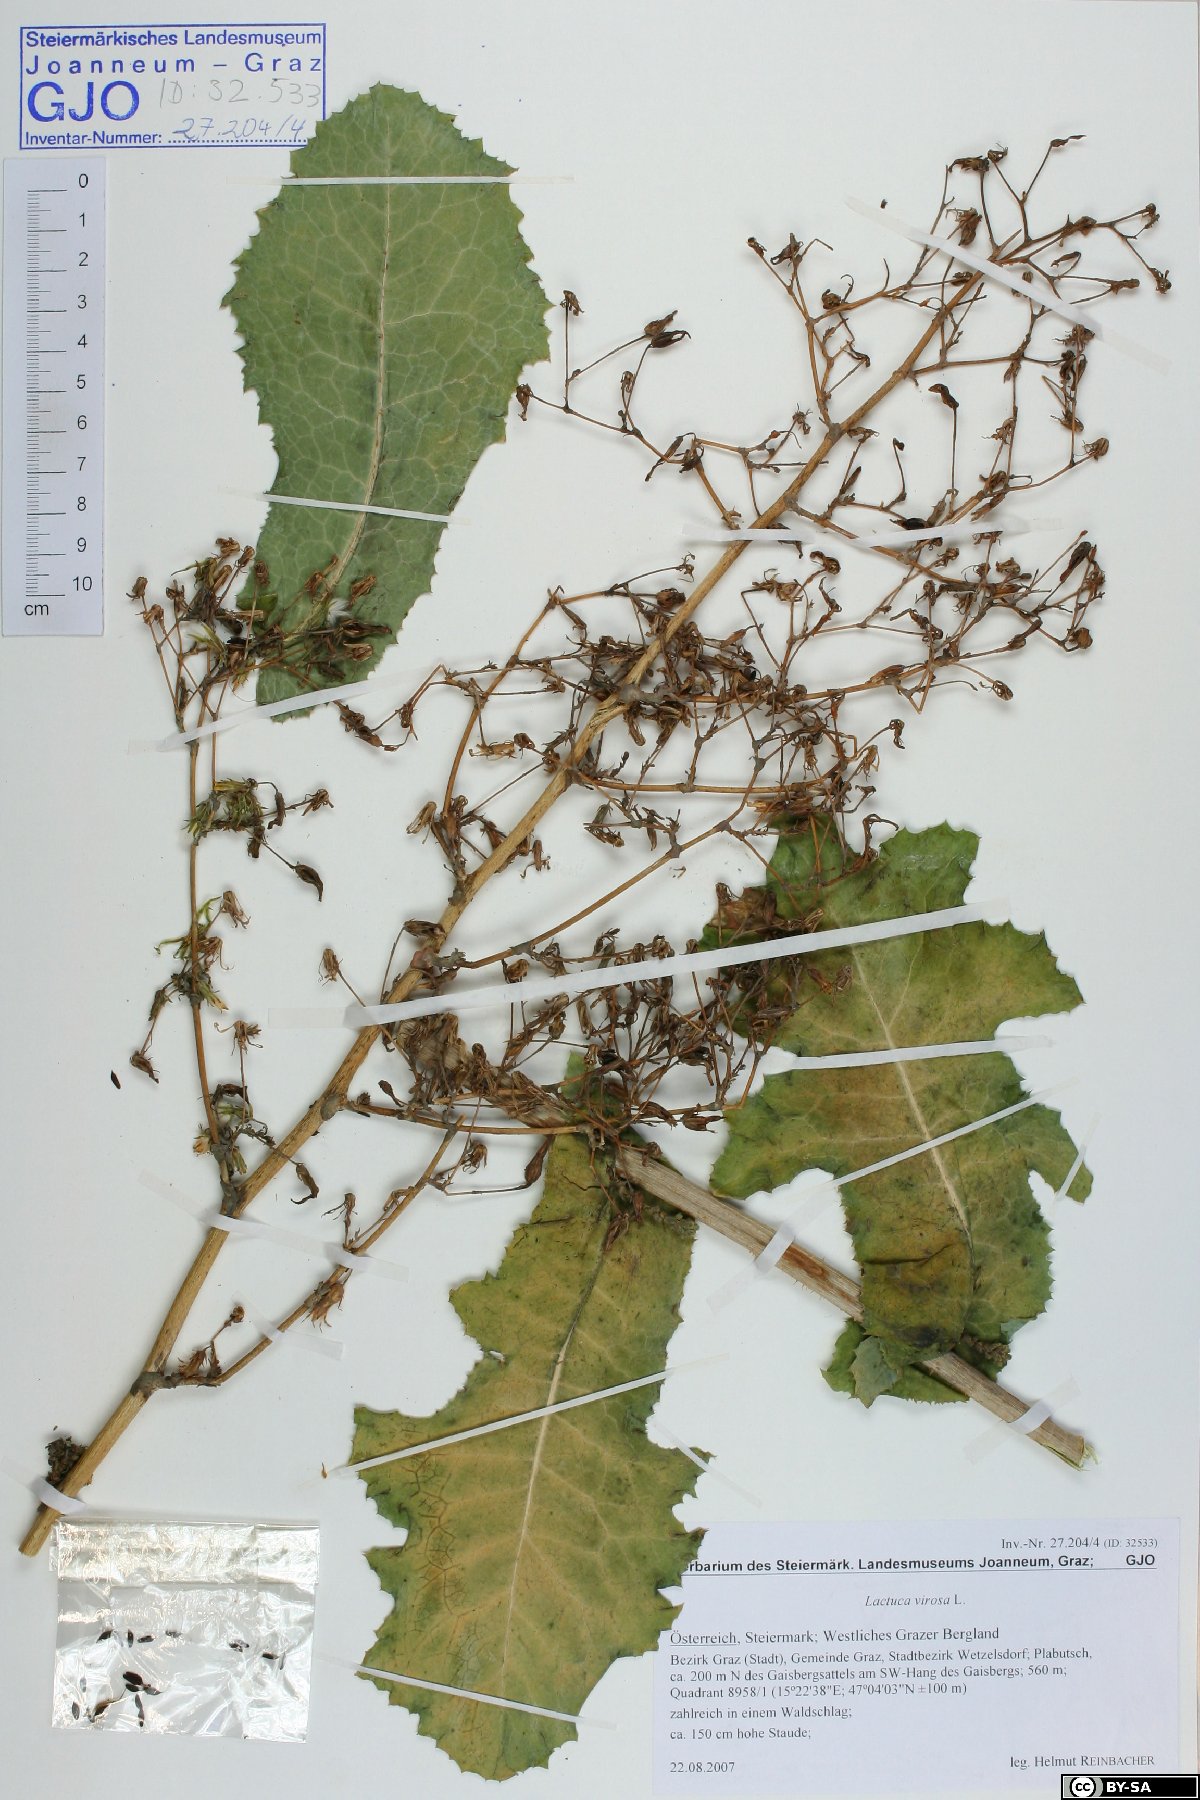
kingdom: Plantae
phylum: Tracheophyta
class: Magnoliopsida
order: Asterales
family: Asteraceae
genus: Lactuca
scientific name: Lactuca virosa
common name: Great lettuce
